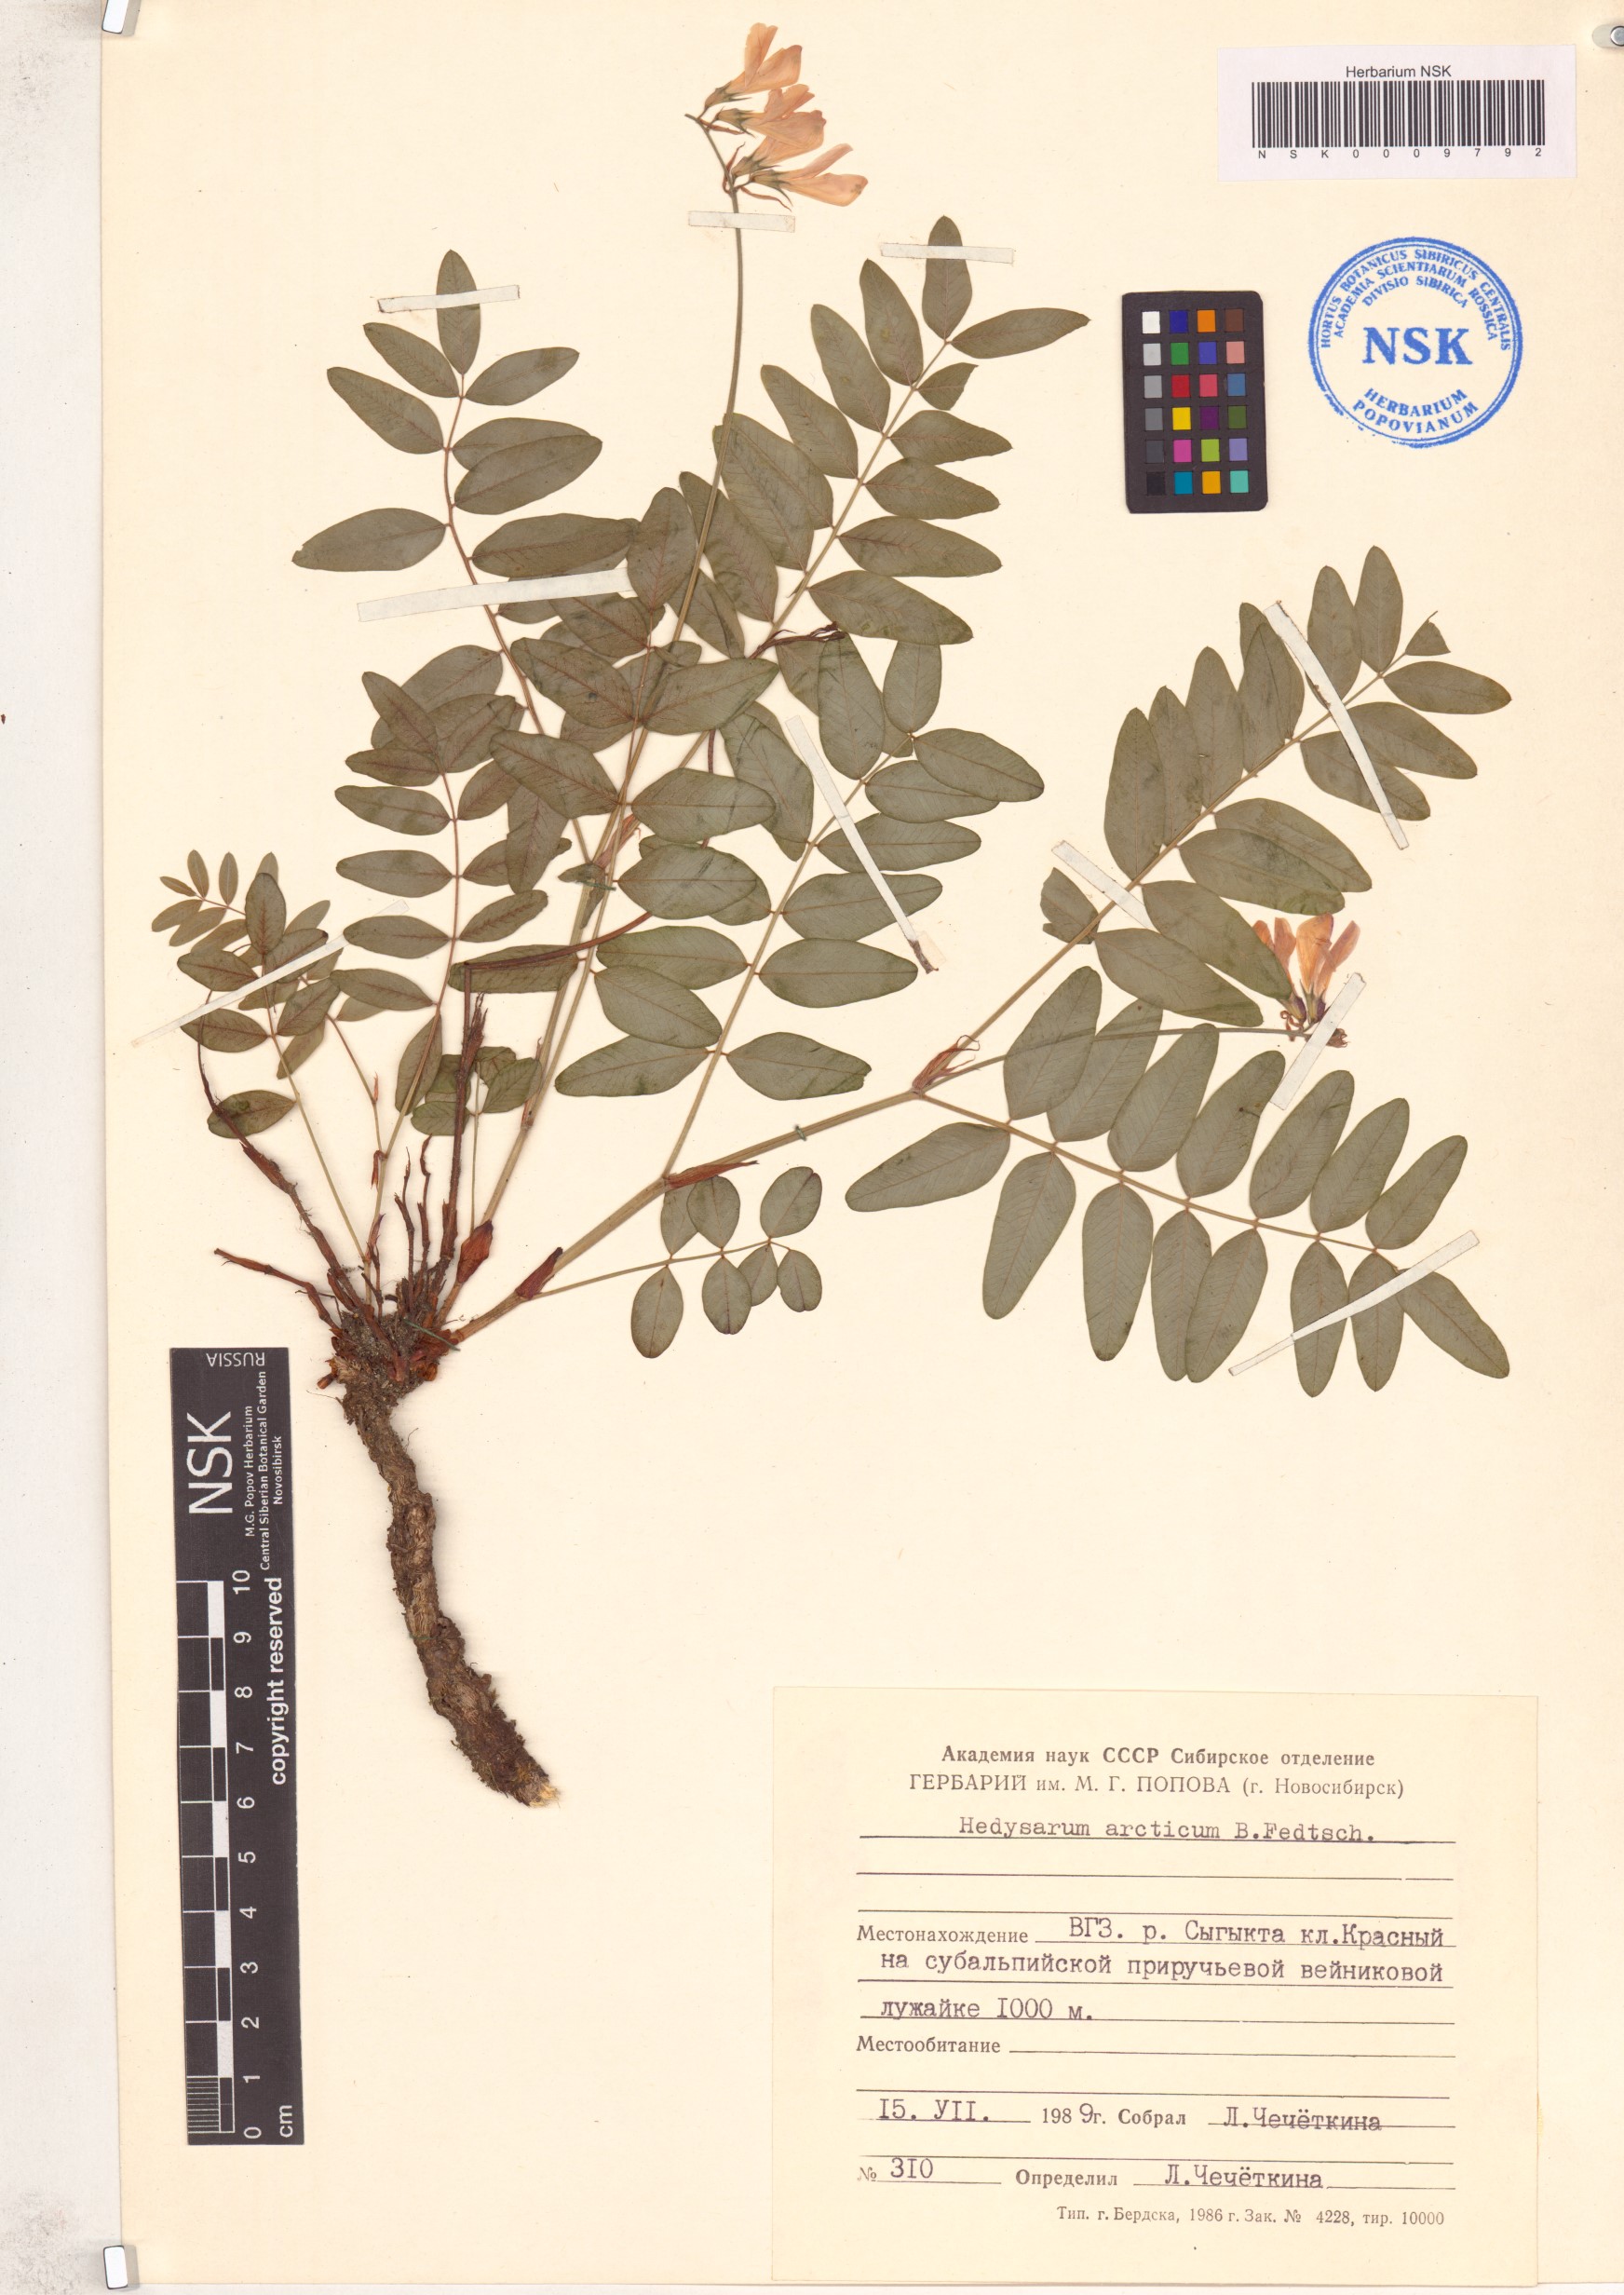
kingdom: Plantae
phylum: Tracheophyta
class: Magnoliopsida
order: Fabales
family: Fabaceae
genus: Hedysarum
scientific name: Hedysarum hedysaroides
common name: Alpine french-honeysuckle
